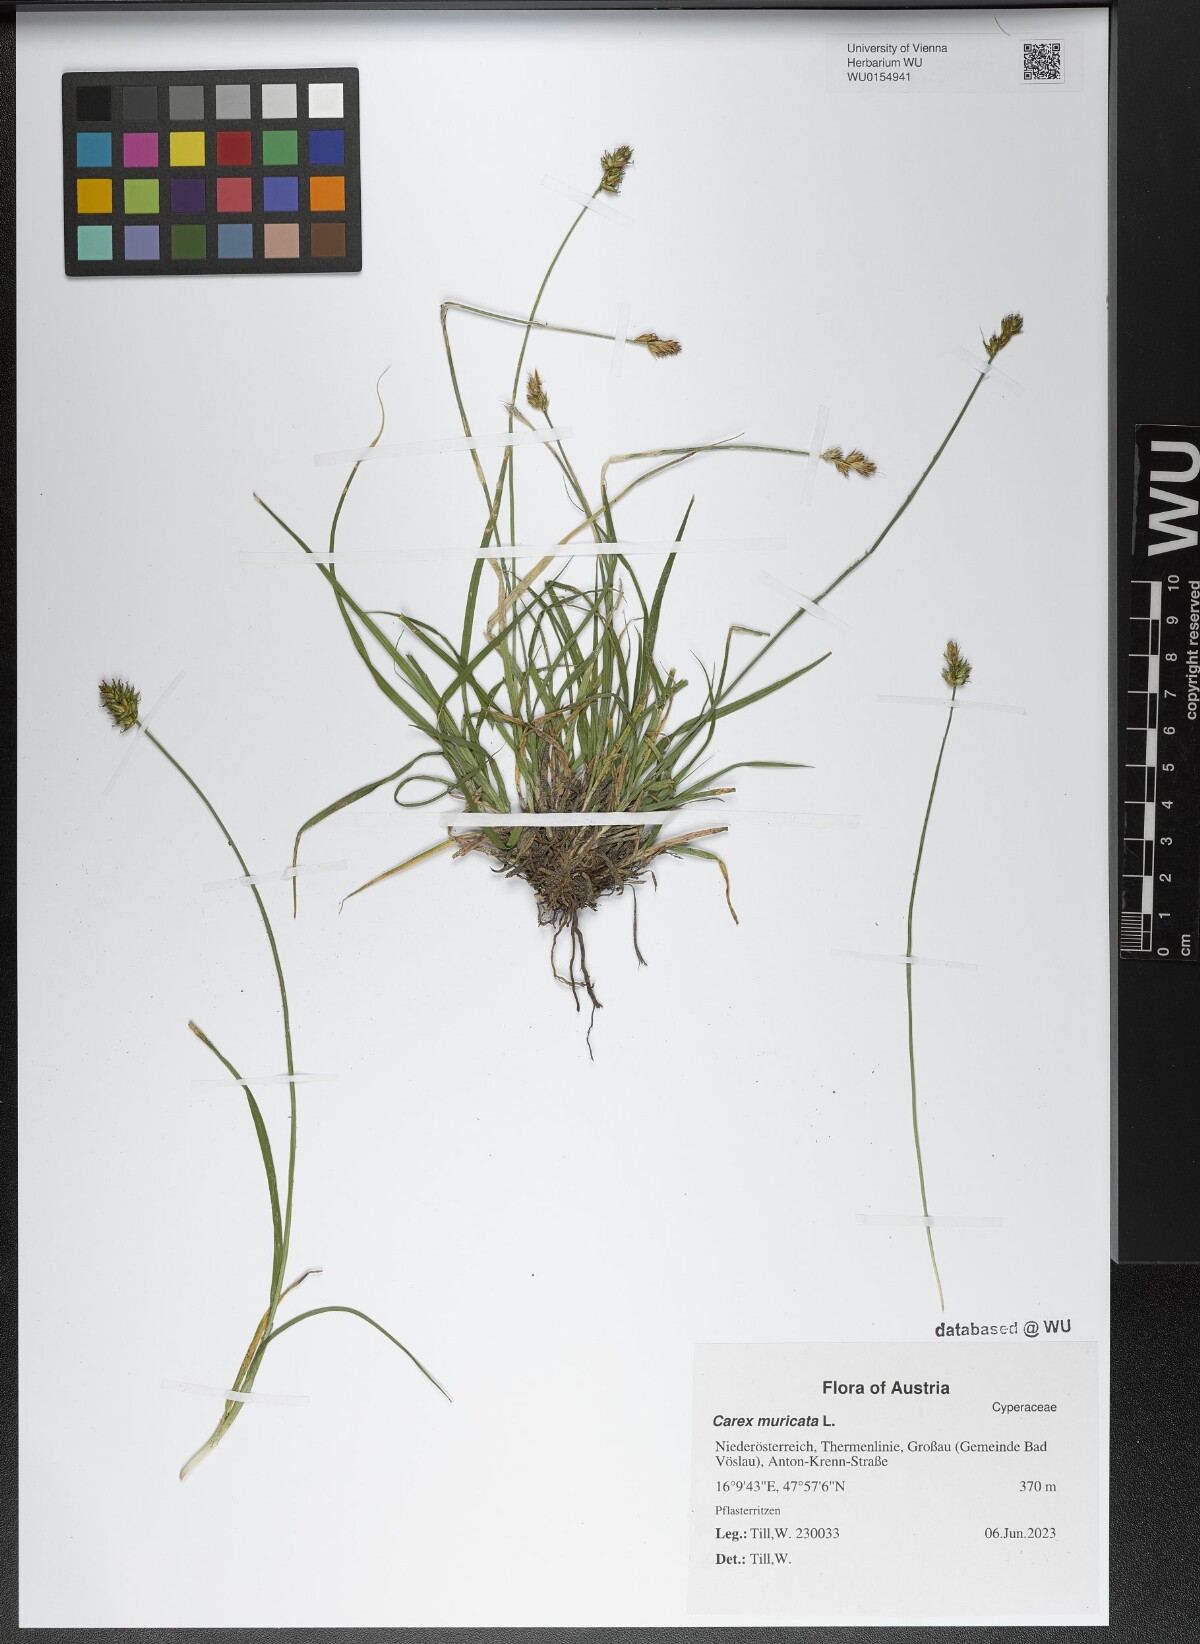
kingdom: Plantae
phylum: Tracheophyta
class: Liliopsida
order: Poales
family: Cyperaceae
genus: Carex
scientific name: Carex muricata
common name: Rough sedge
